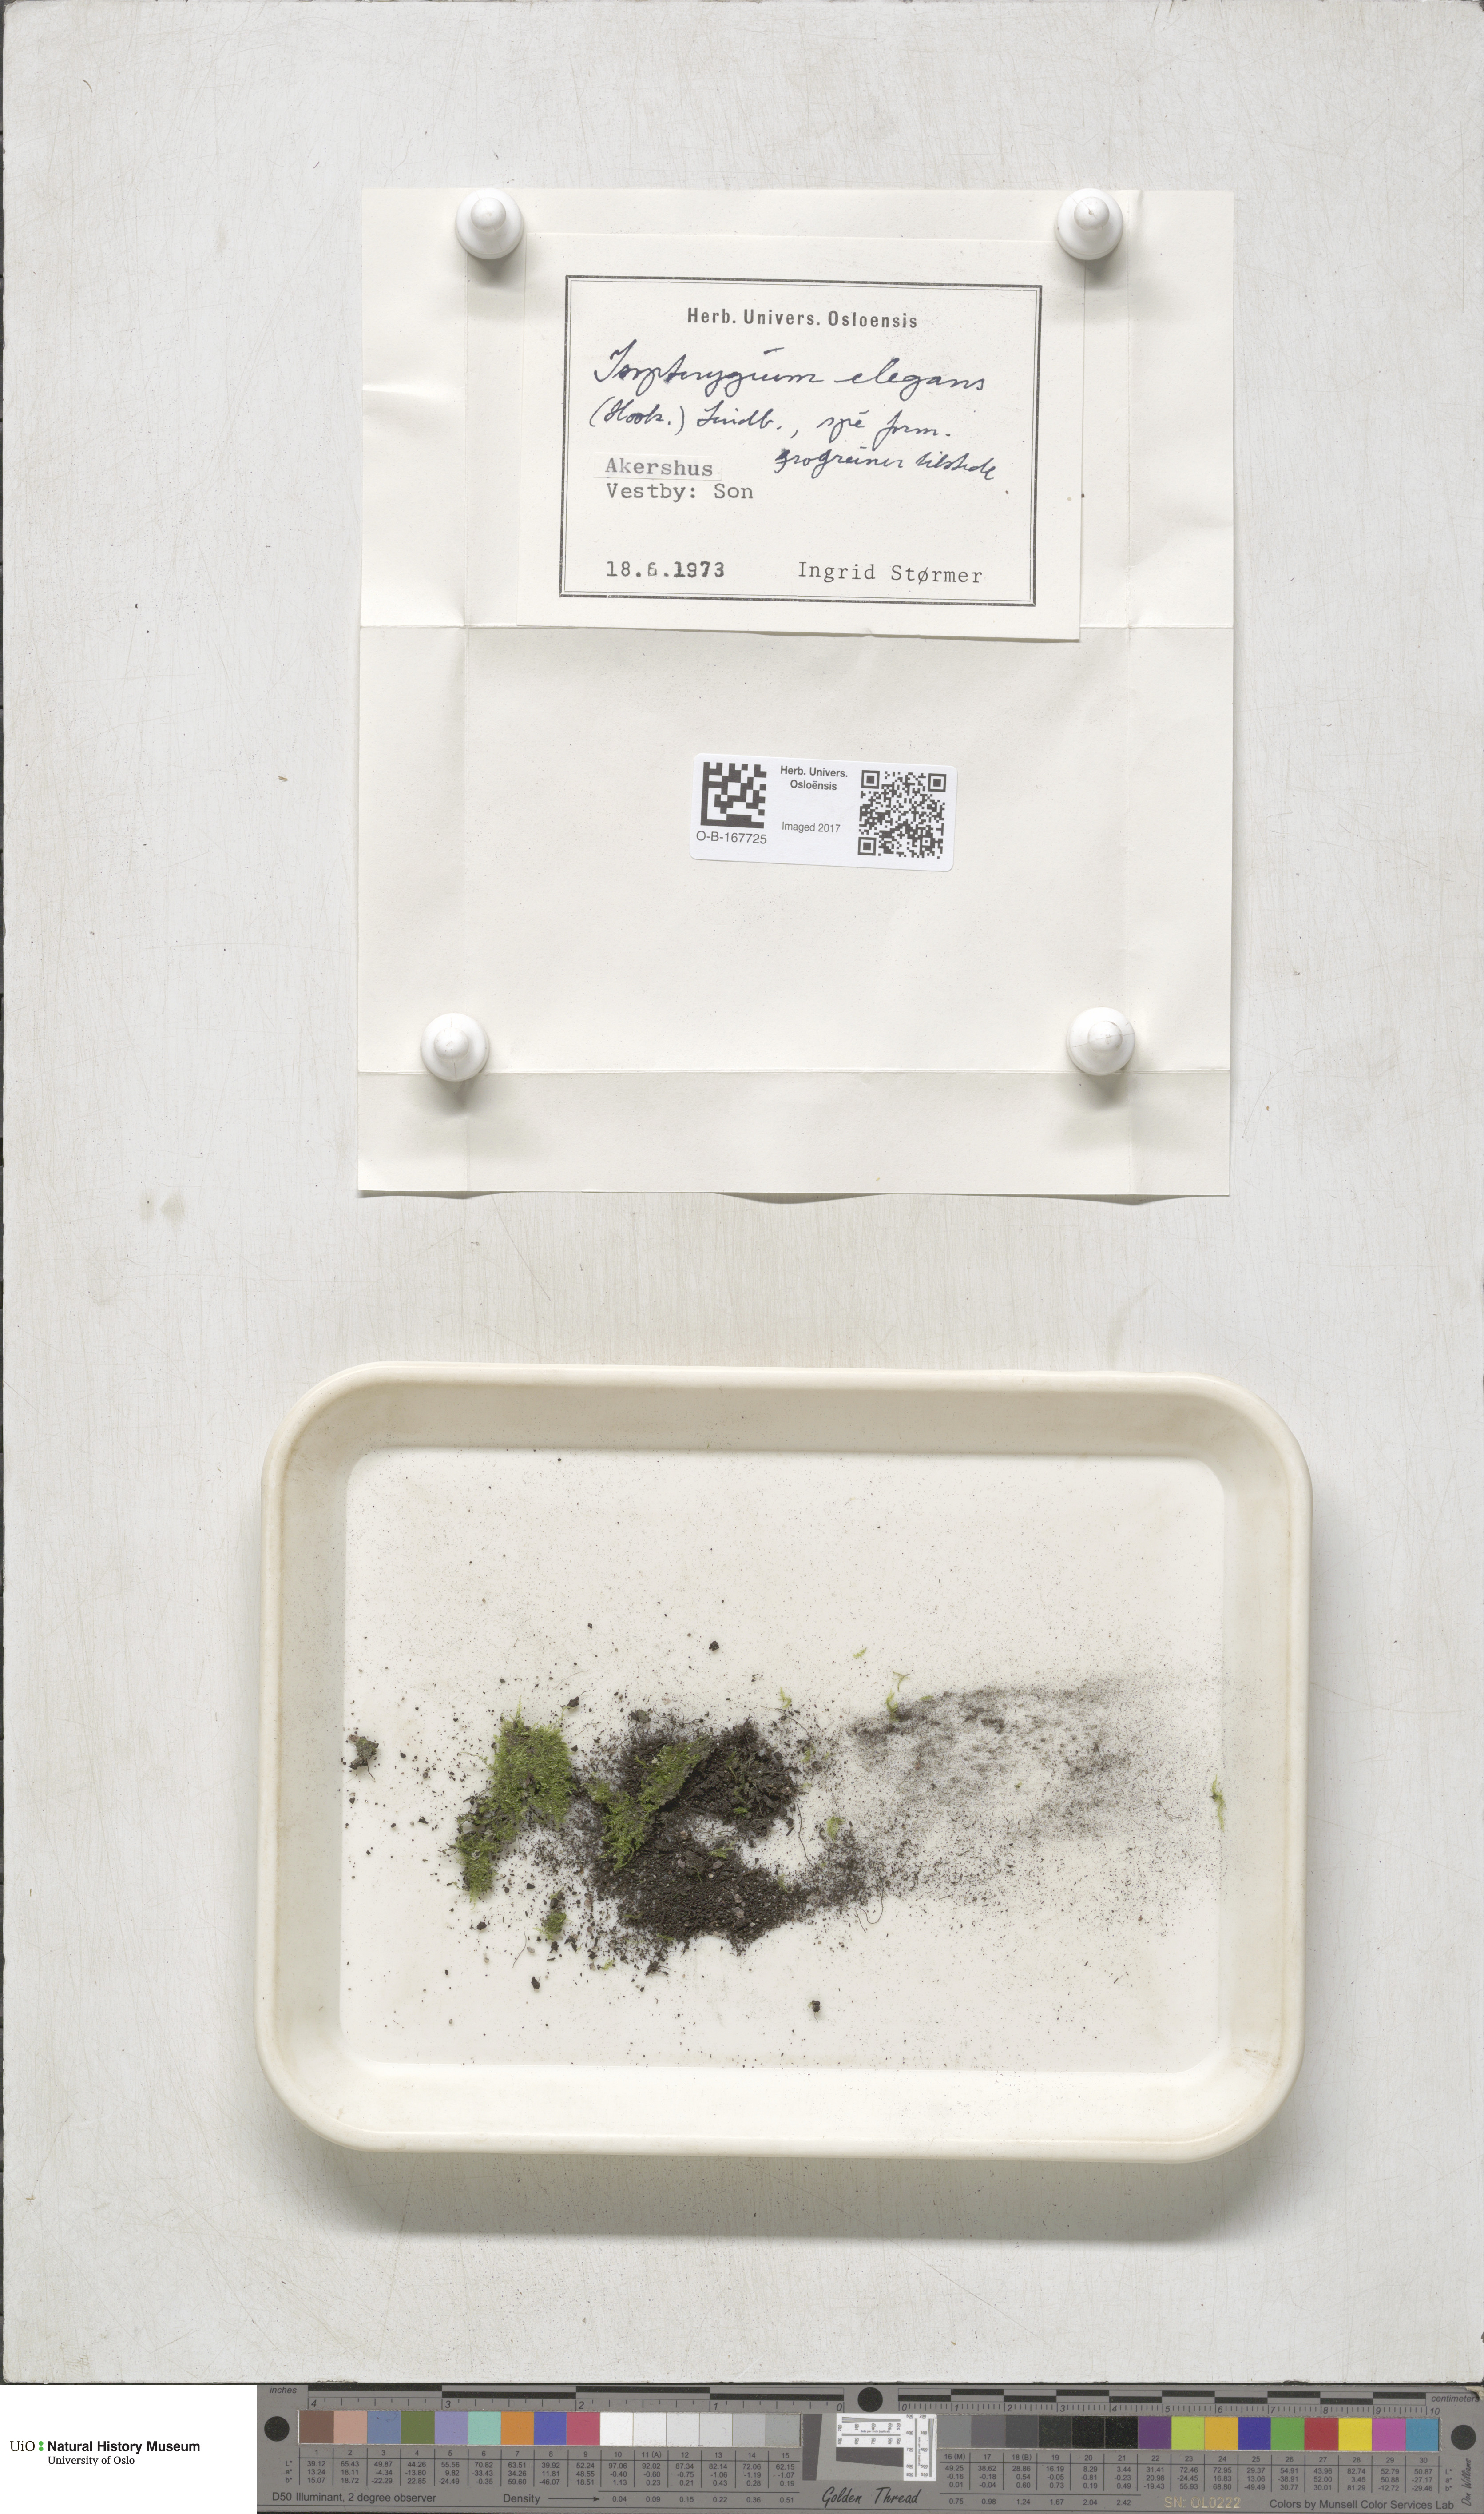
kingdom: Plantae
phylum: Bryophyta
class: Bryopsida
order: Hypnales
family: Plagiotheciaceae
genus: Pseudotaxiphyllum
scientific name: Pseudotaxiphyllum elegans
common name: Elegant silk moss
